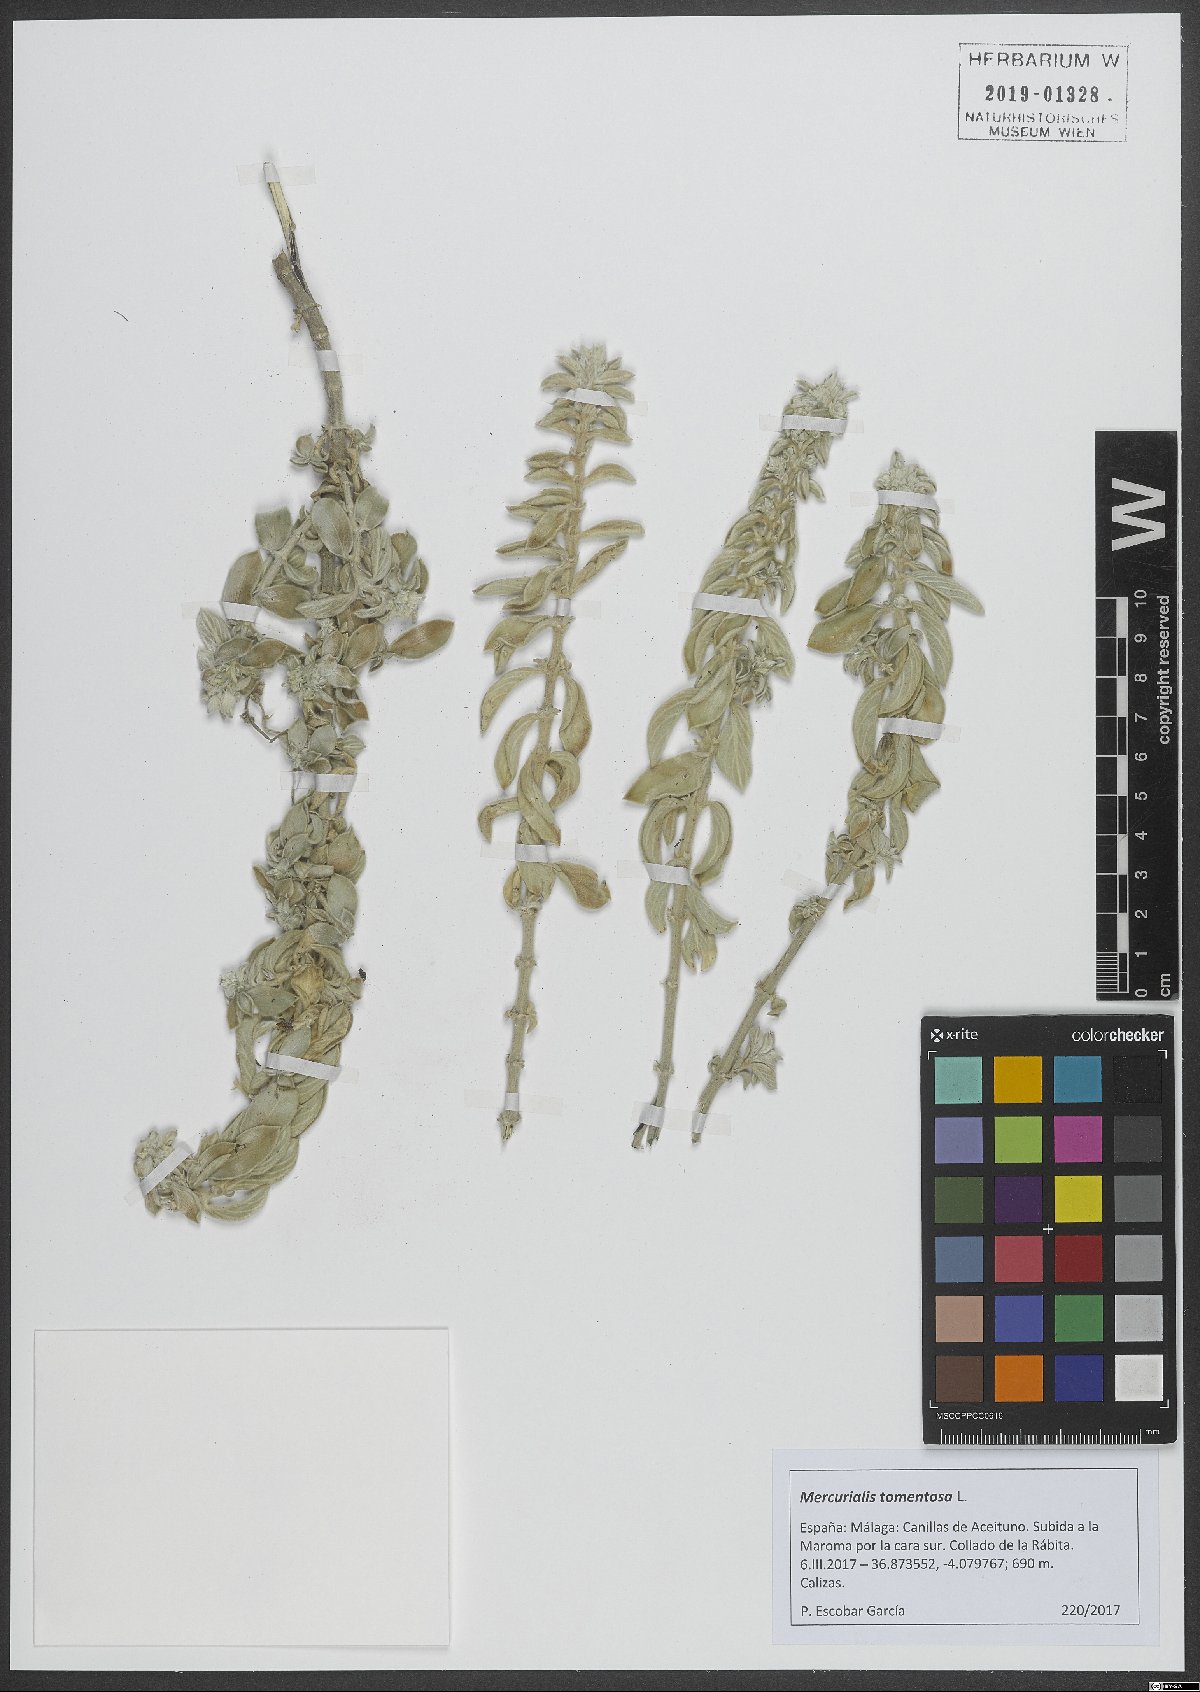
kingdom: Plantae
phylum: Tracheophyta
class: Magnoliopsida
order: Malpighiales
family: Euphorbiaceae
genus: Mercurialis
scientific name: Mercurialis tomentosa
